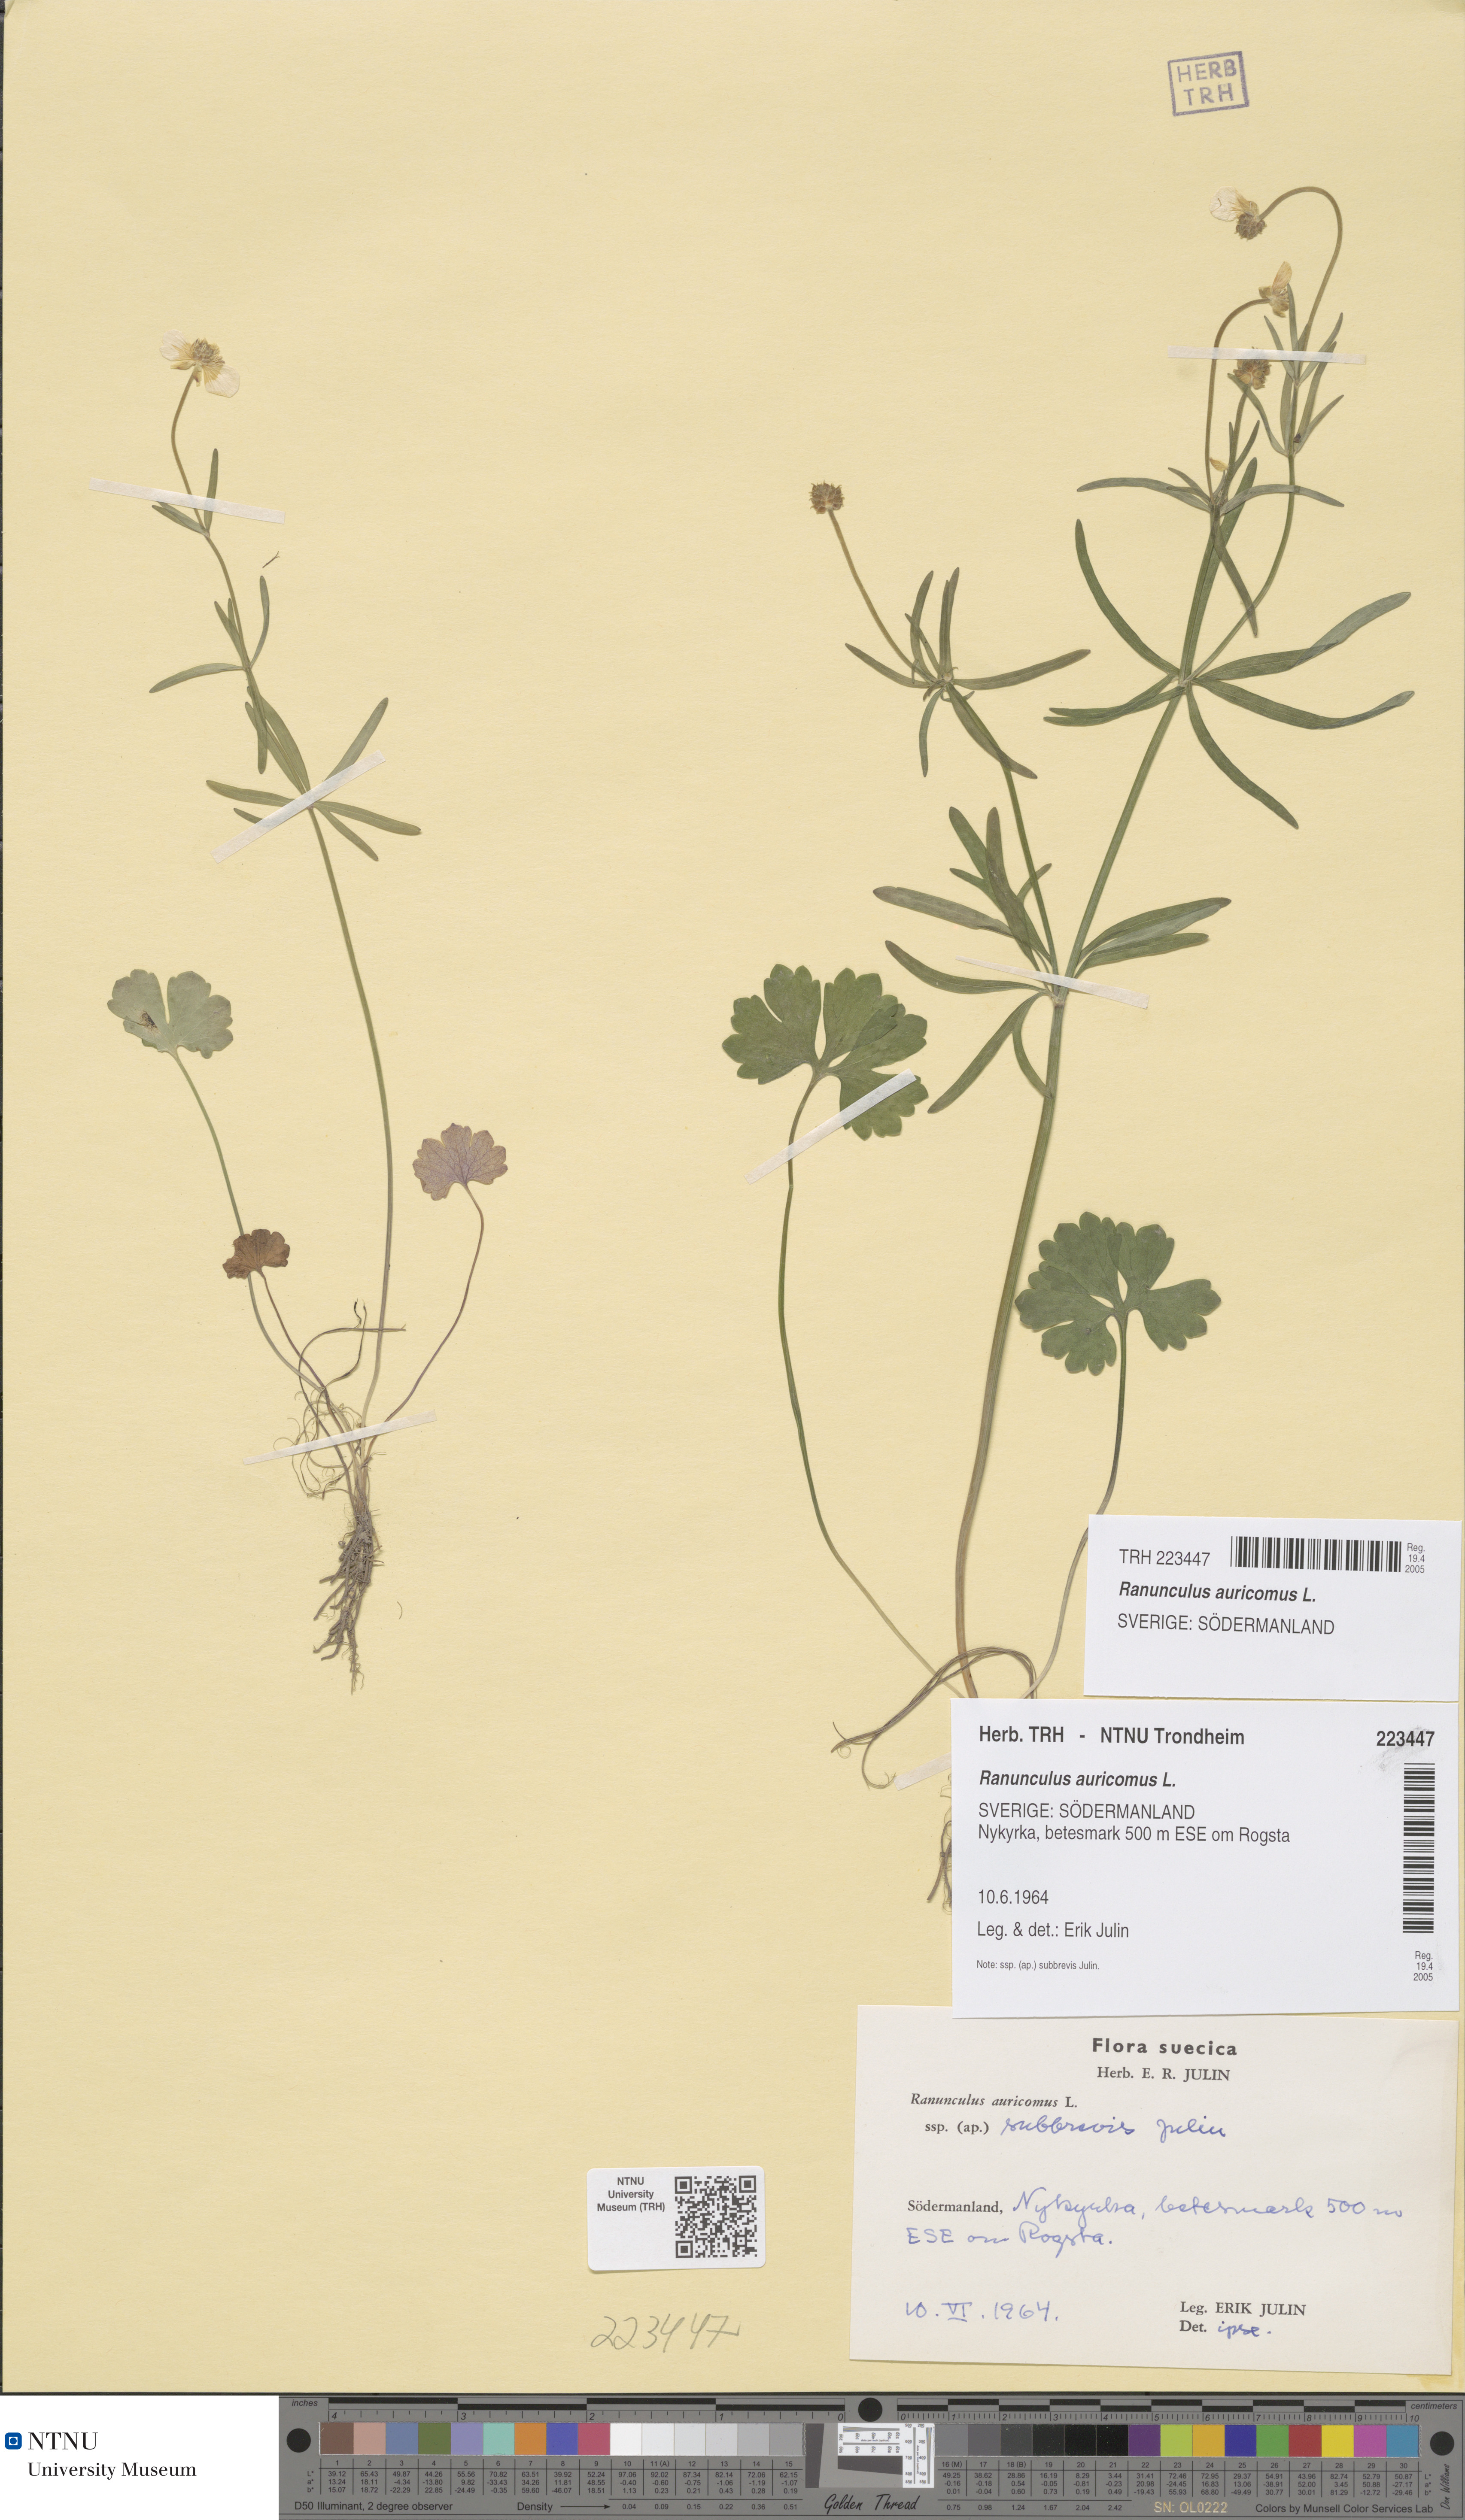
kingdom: Plantae
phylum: Tracheophyta
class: Magnoliopsida
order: Ranunculales
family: Ranunculaceae
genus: Ranunculus
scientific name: Ranunculus auricomus
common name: Goldilocks buttercup
